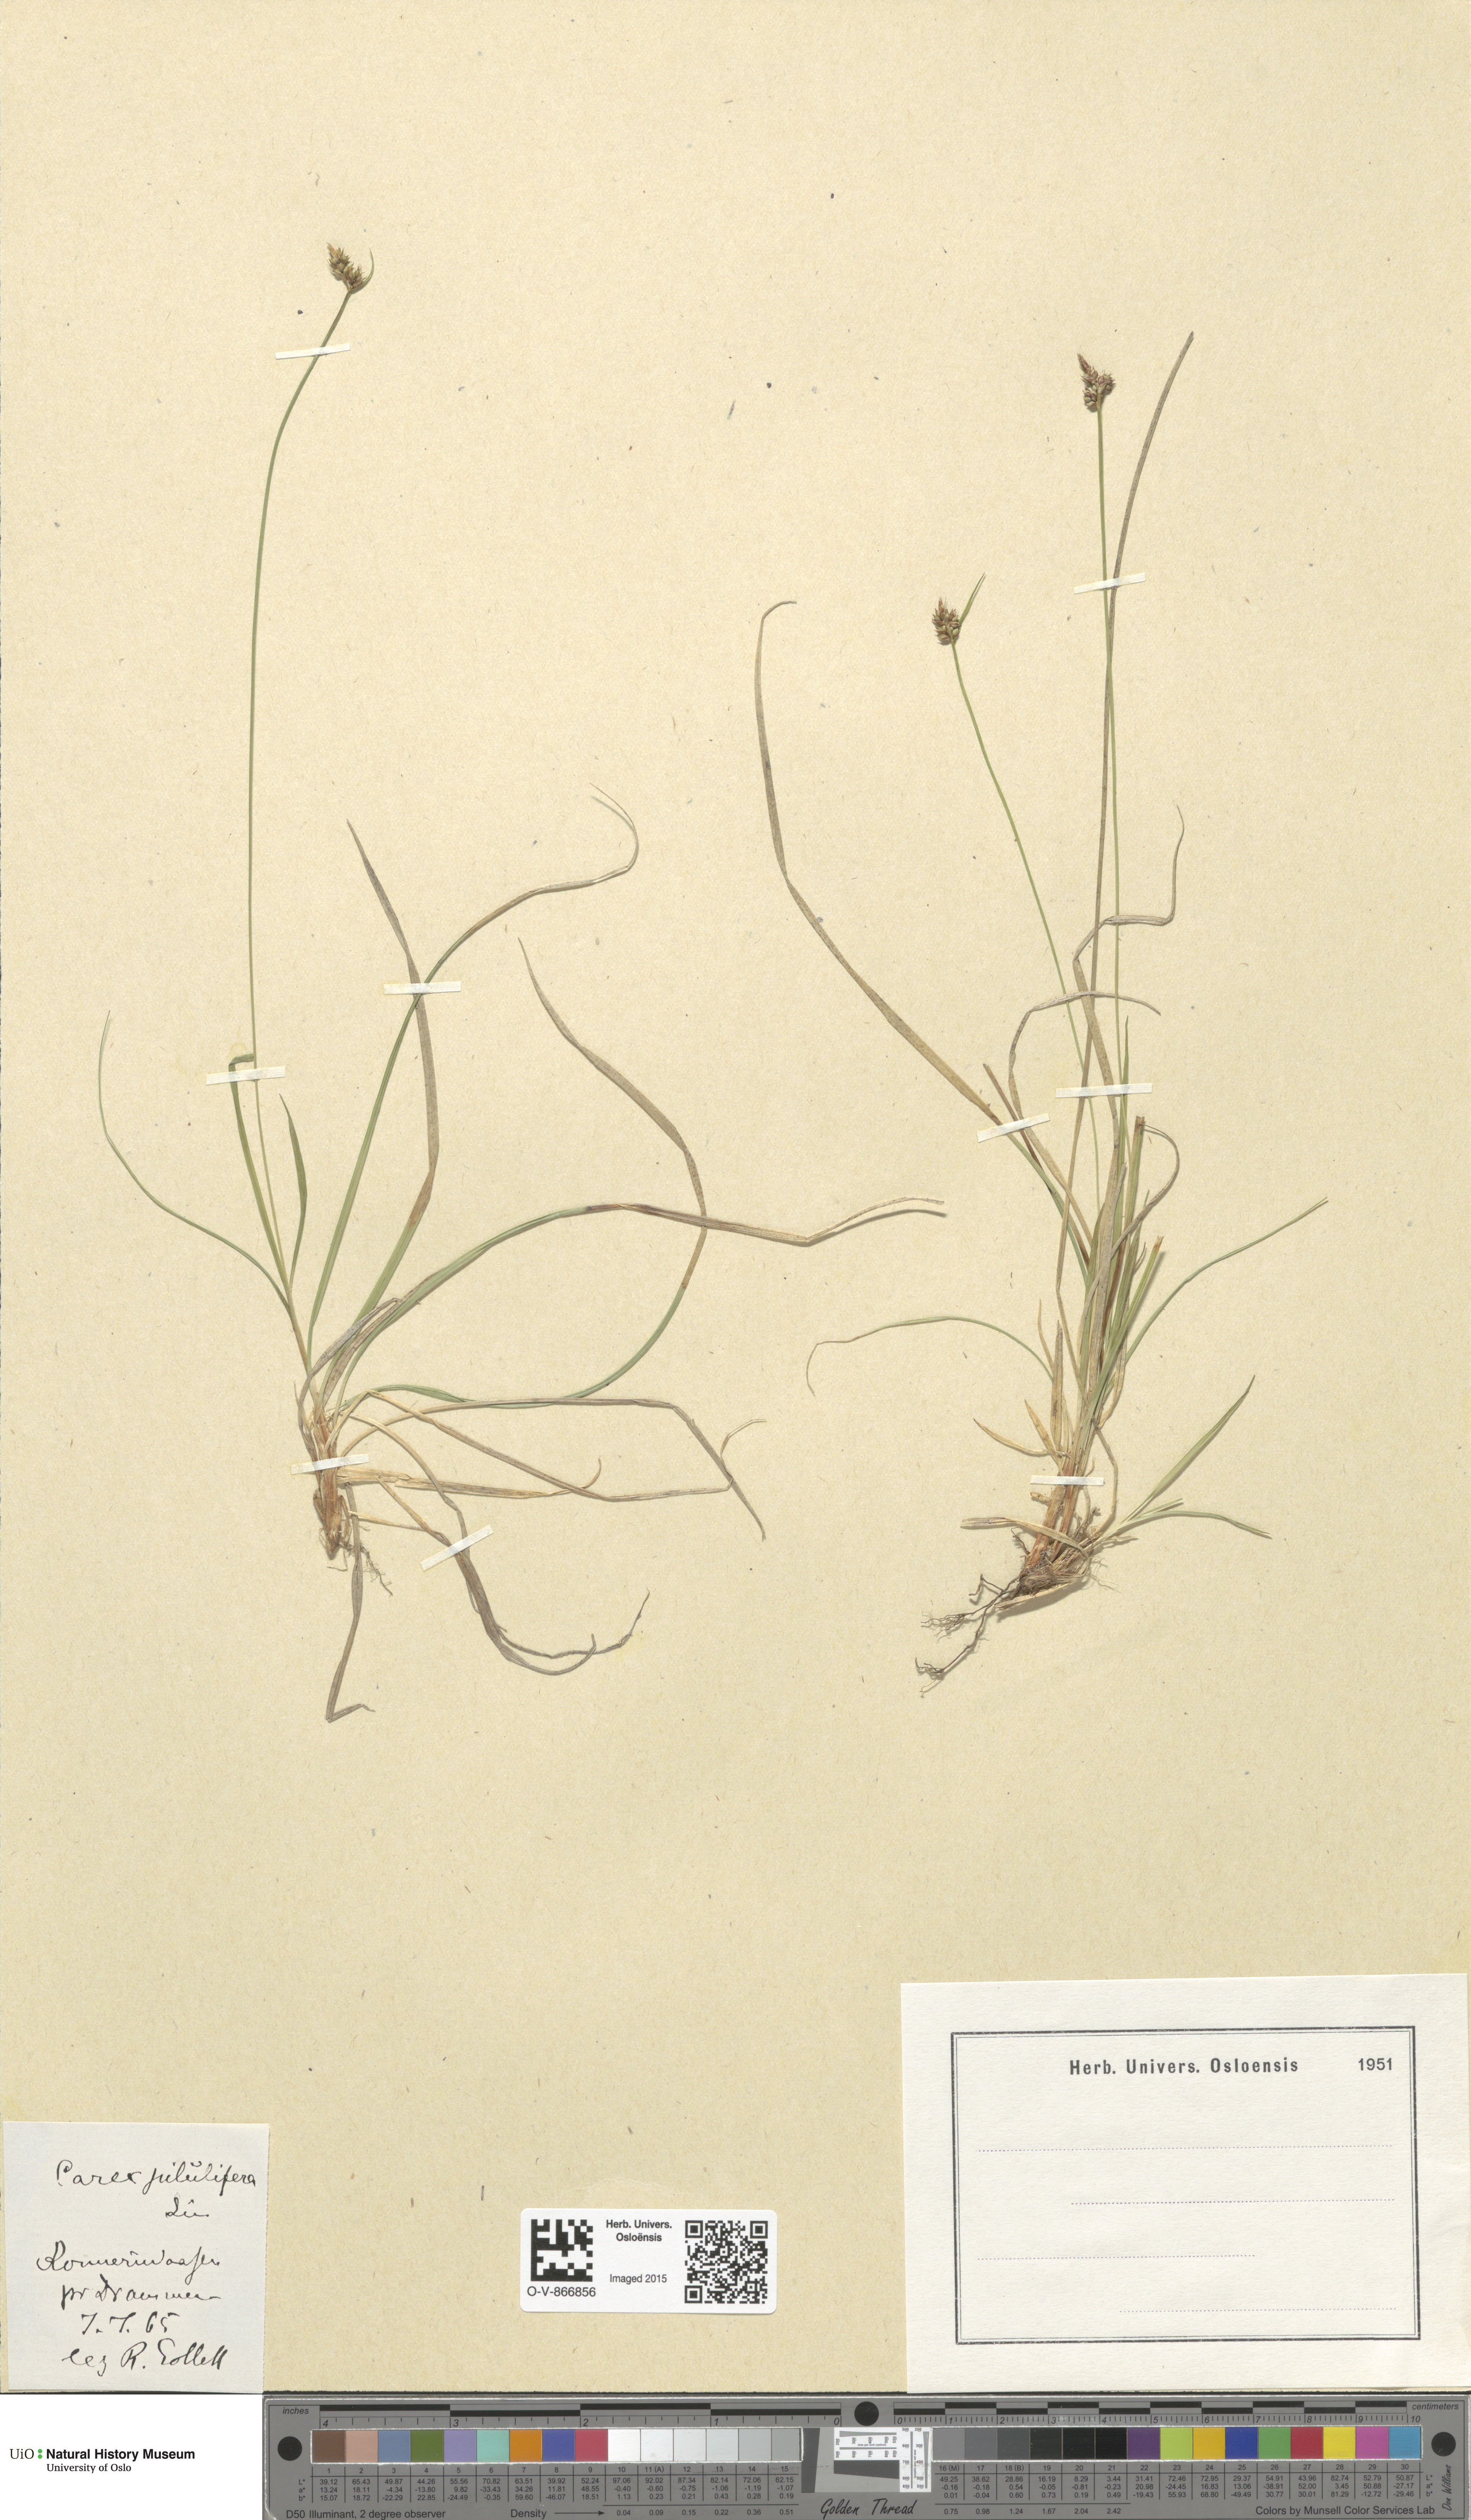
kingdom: Plantae
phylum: Tracheophyta
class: Liliopsida
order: Poales
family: Cyperaceae
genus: Carex
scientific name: Carex pilulifera
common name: Pill sedge
